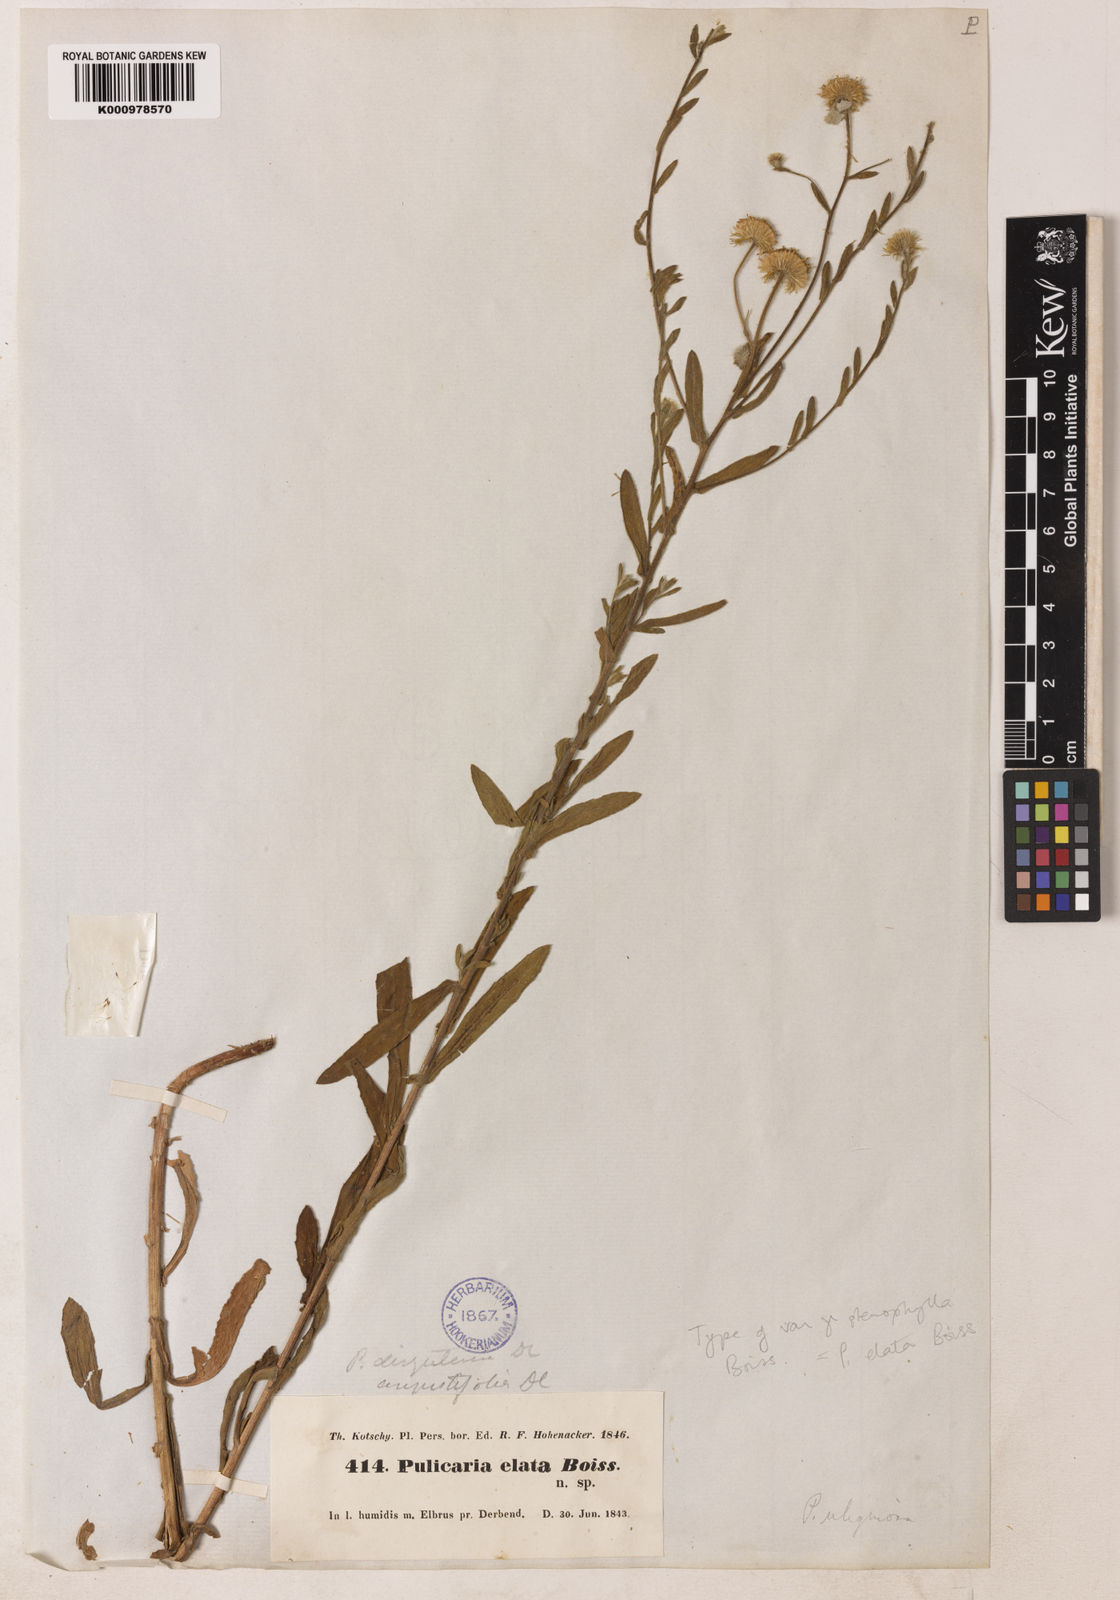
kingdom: Plantae
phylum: Tracheophyta
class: Magnoliopsida
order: Asterales
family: Asteraceae
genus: Pulicaria
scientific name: Pulicaria
